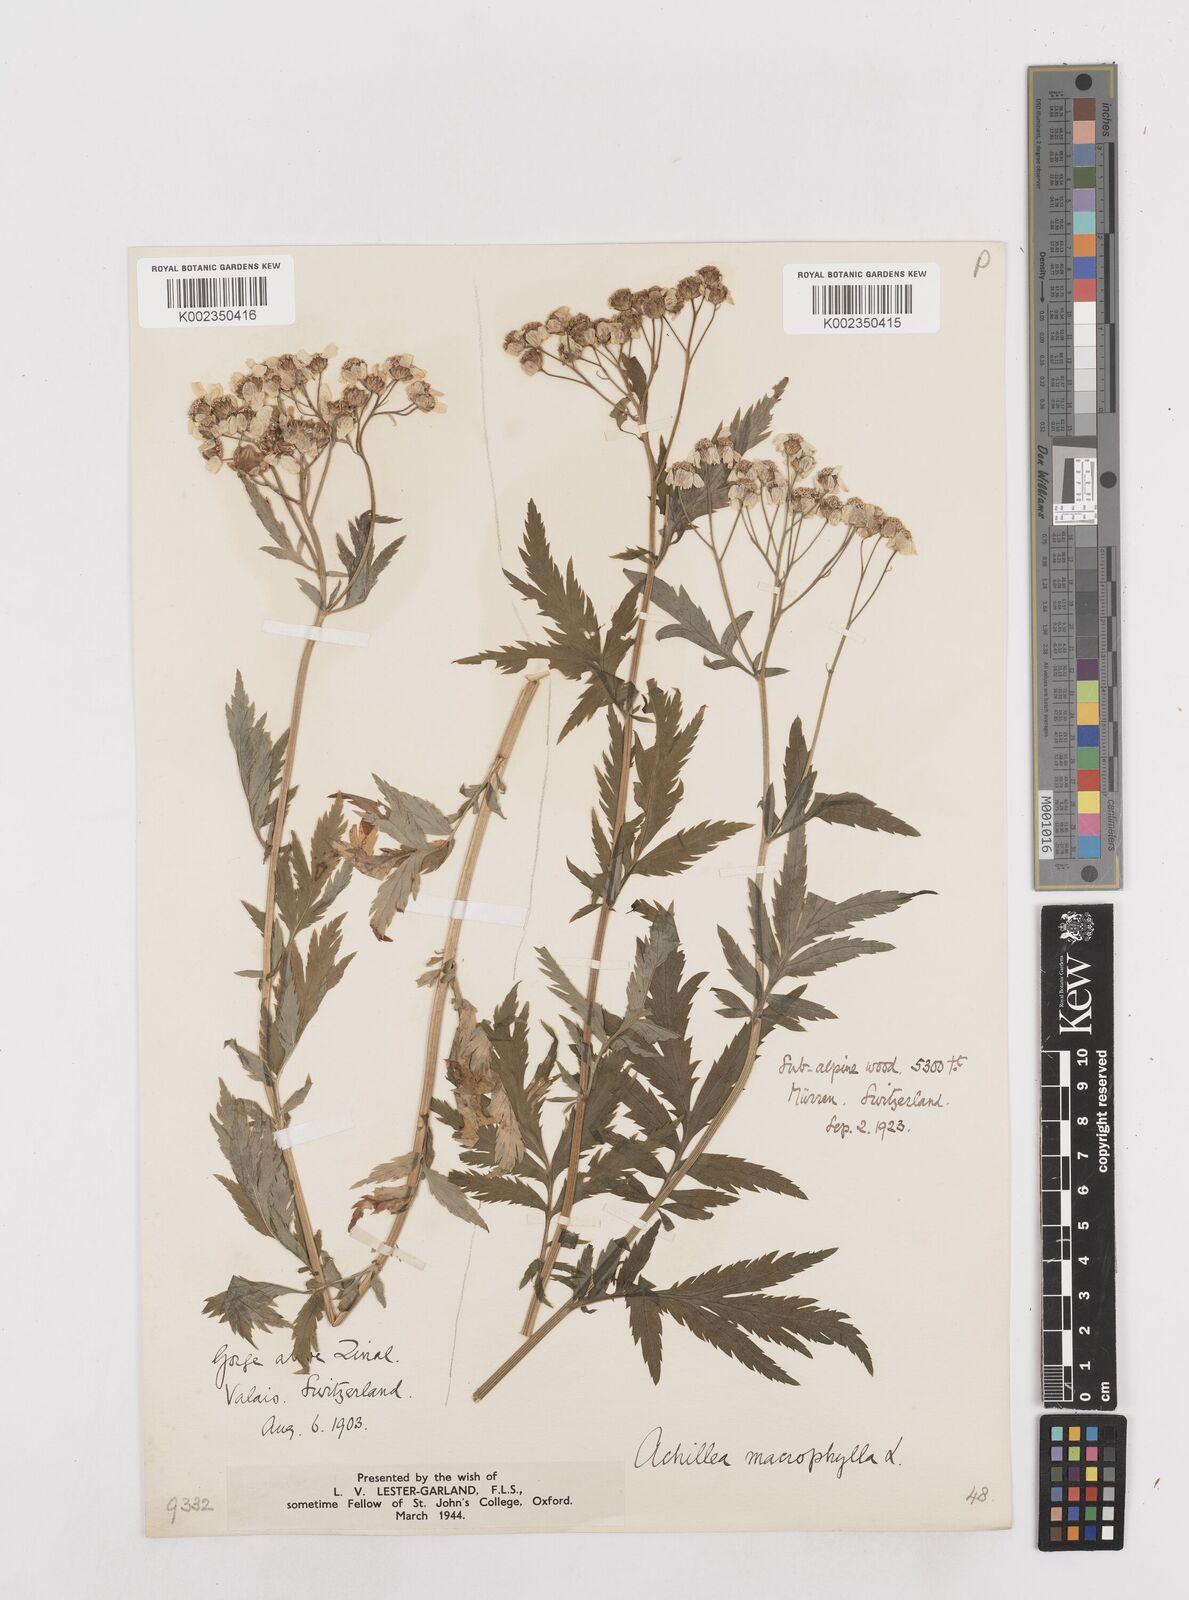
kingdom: Plantae
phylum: Tracheophyta
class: Magnoliopsida
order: Asterales
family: Asteraceae
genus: Achillea
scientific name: Achillea macrophylla
